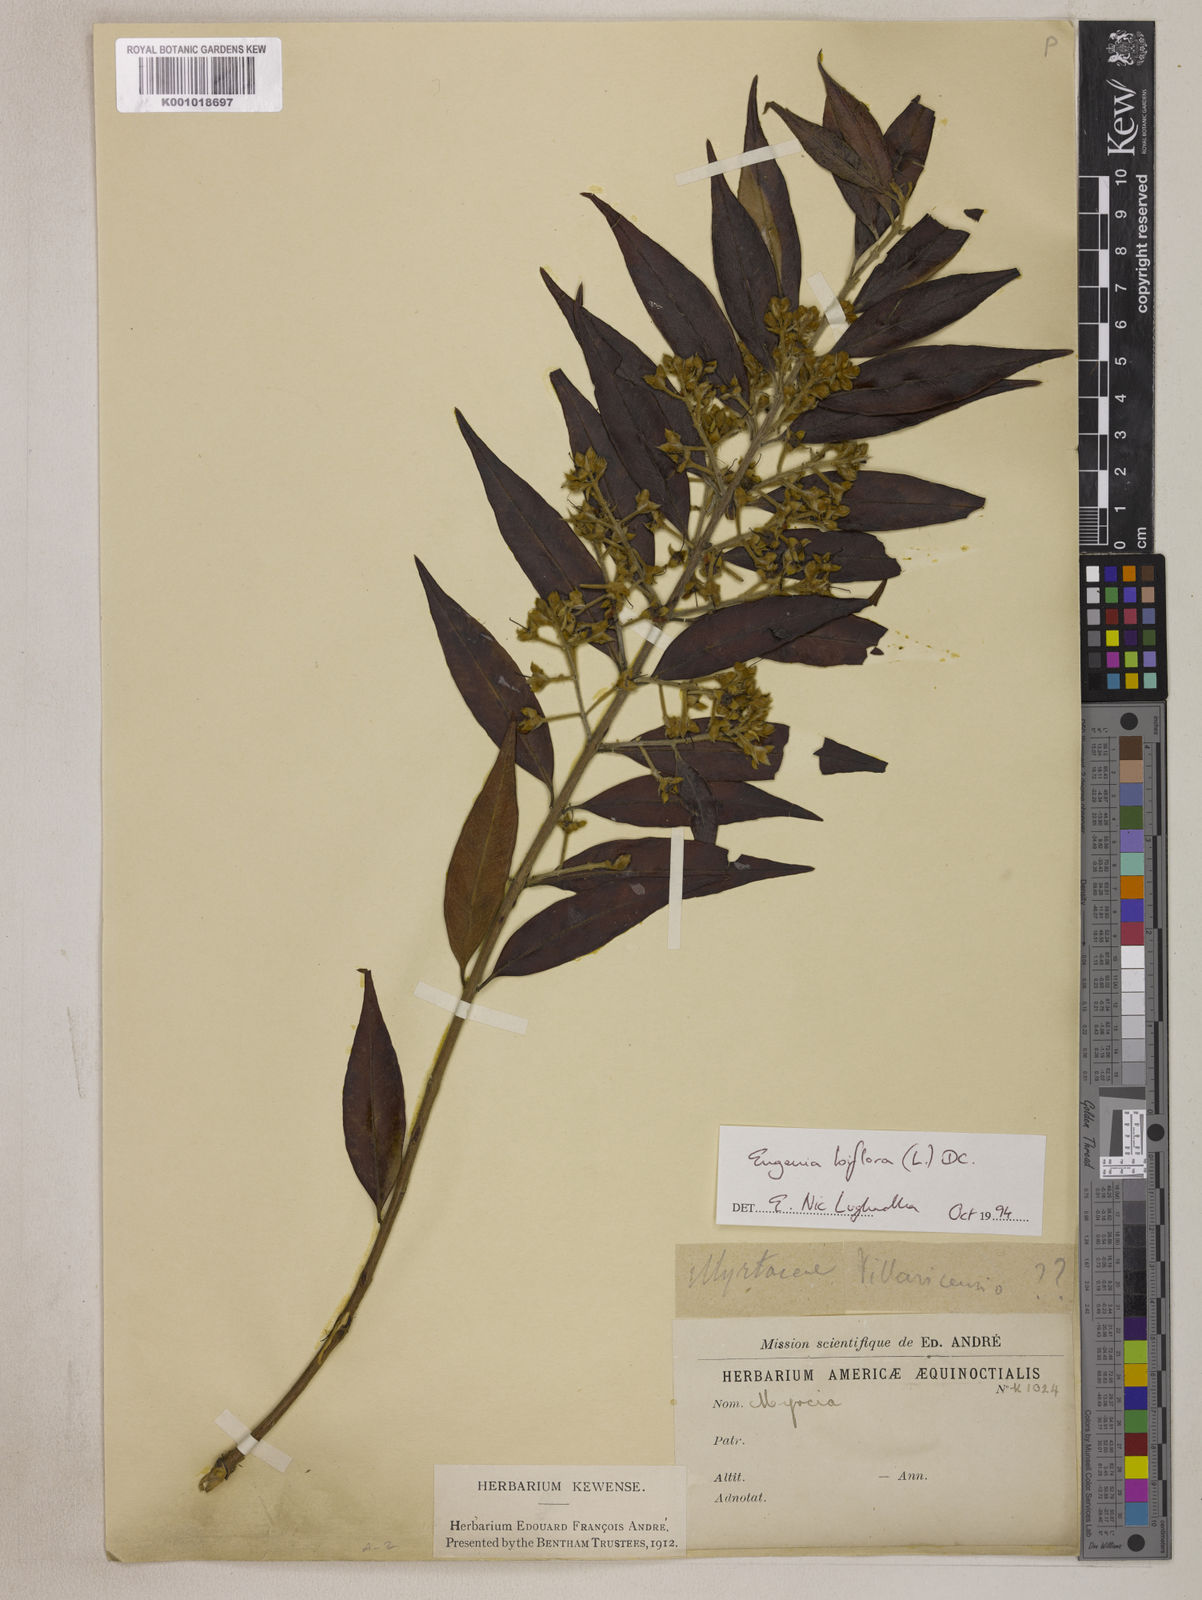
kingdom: Plantae
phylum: Tracheophyta
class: Magnoliopsida
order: Myrtales
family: Myrtaceae
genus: Eugenia
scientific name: Eugenia biflora
